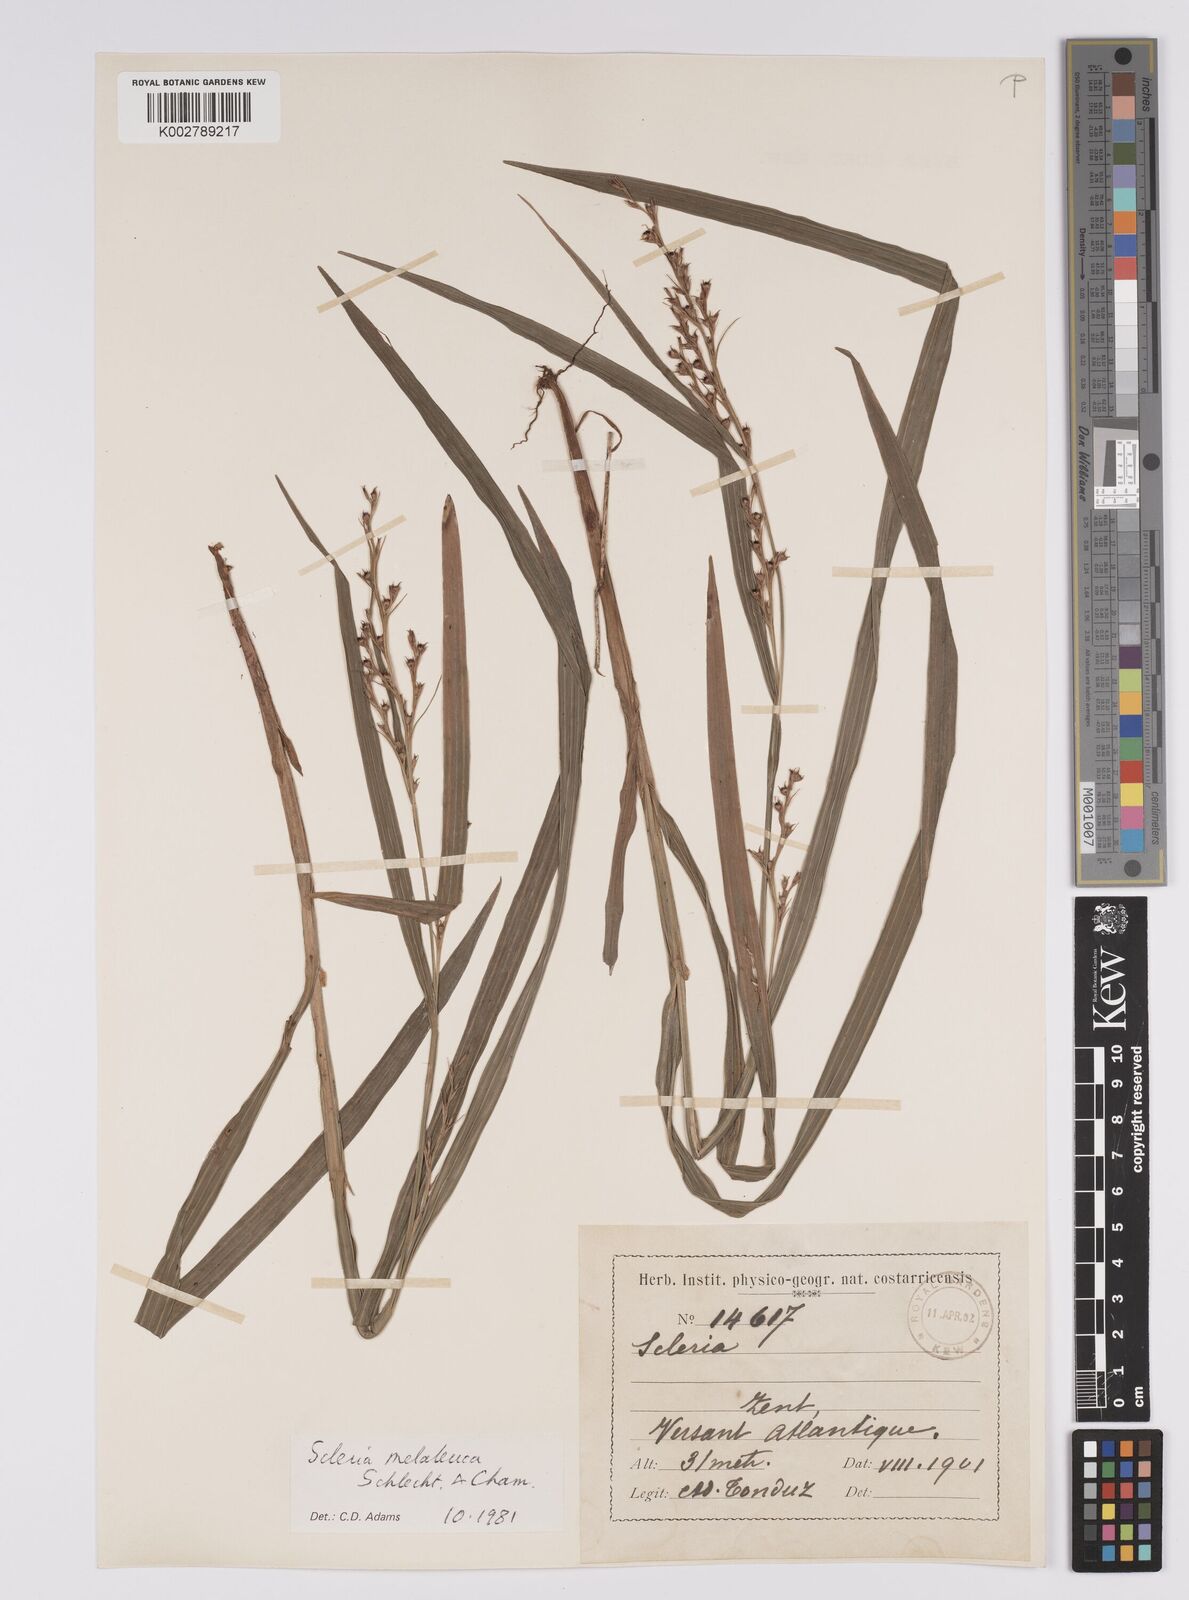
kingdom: Plantae
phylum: Tracheophyta
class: Liliopsida
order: Poales
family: Cyperaceae
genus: Scleria
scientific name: Scleria gaertneri
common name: Cortadera blanca
